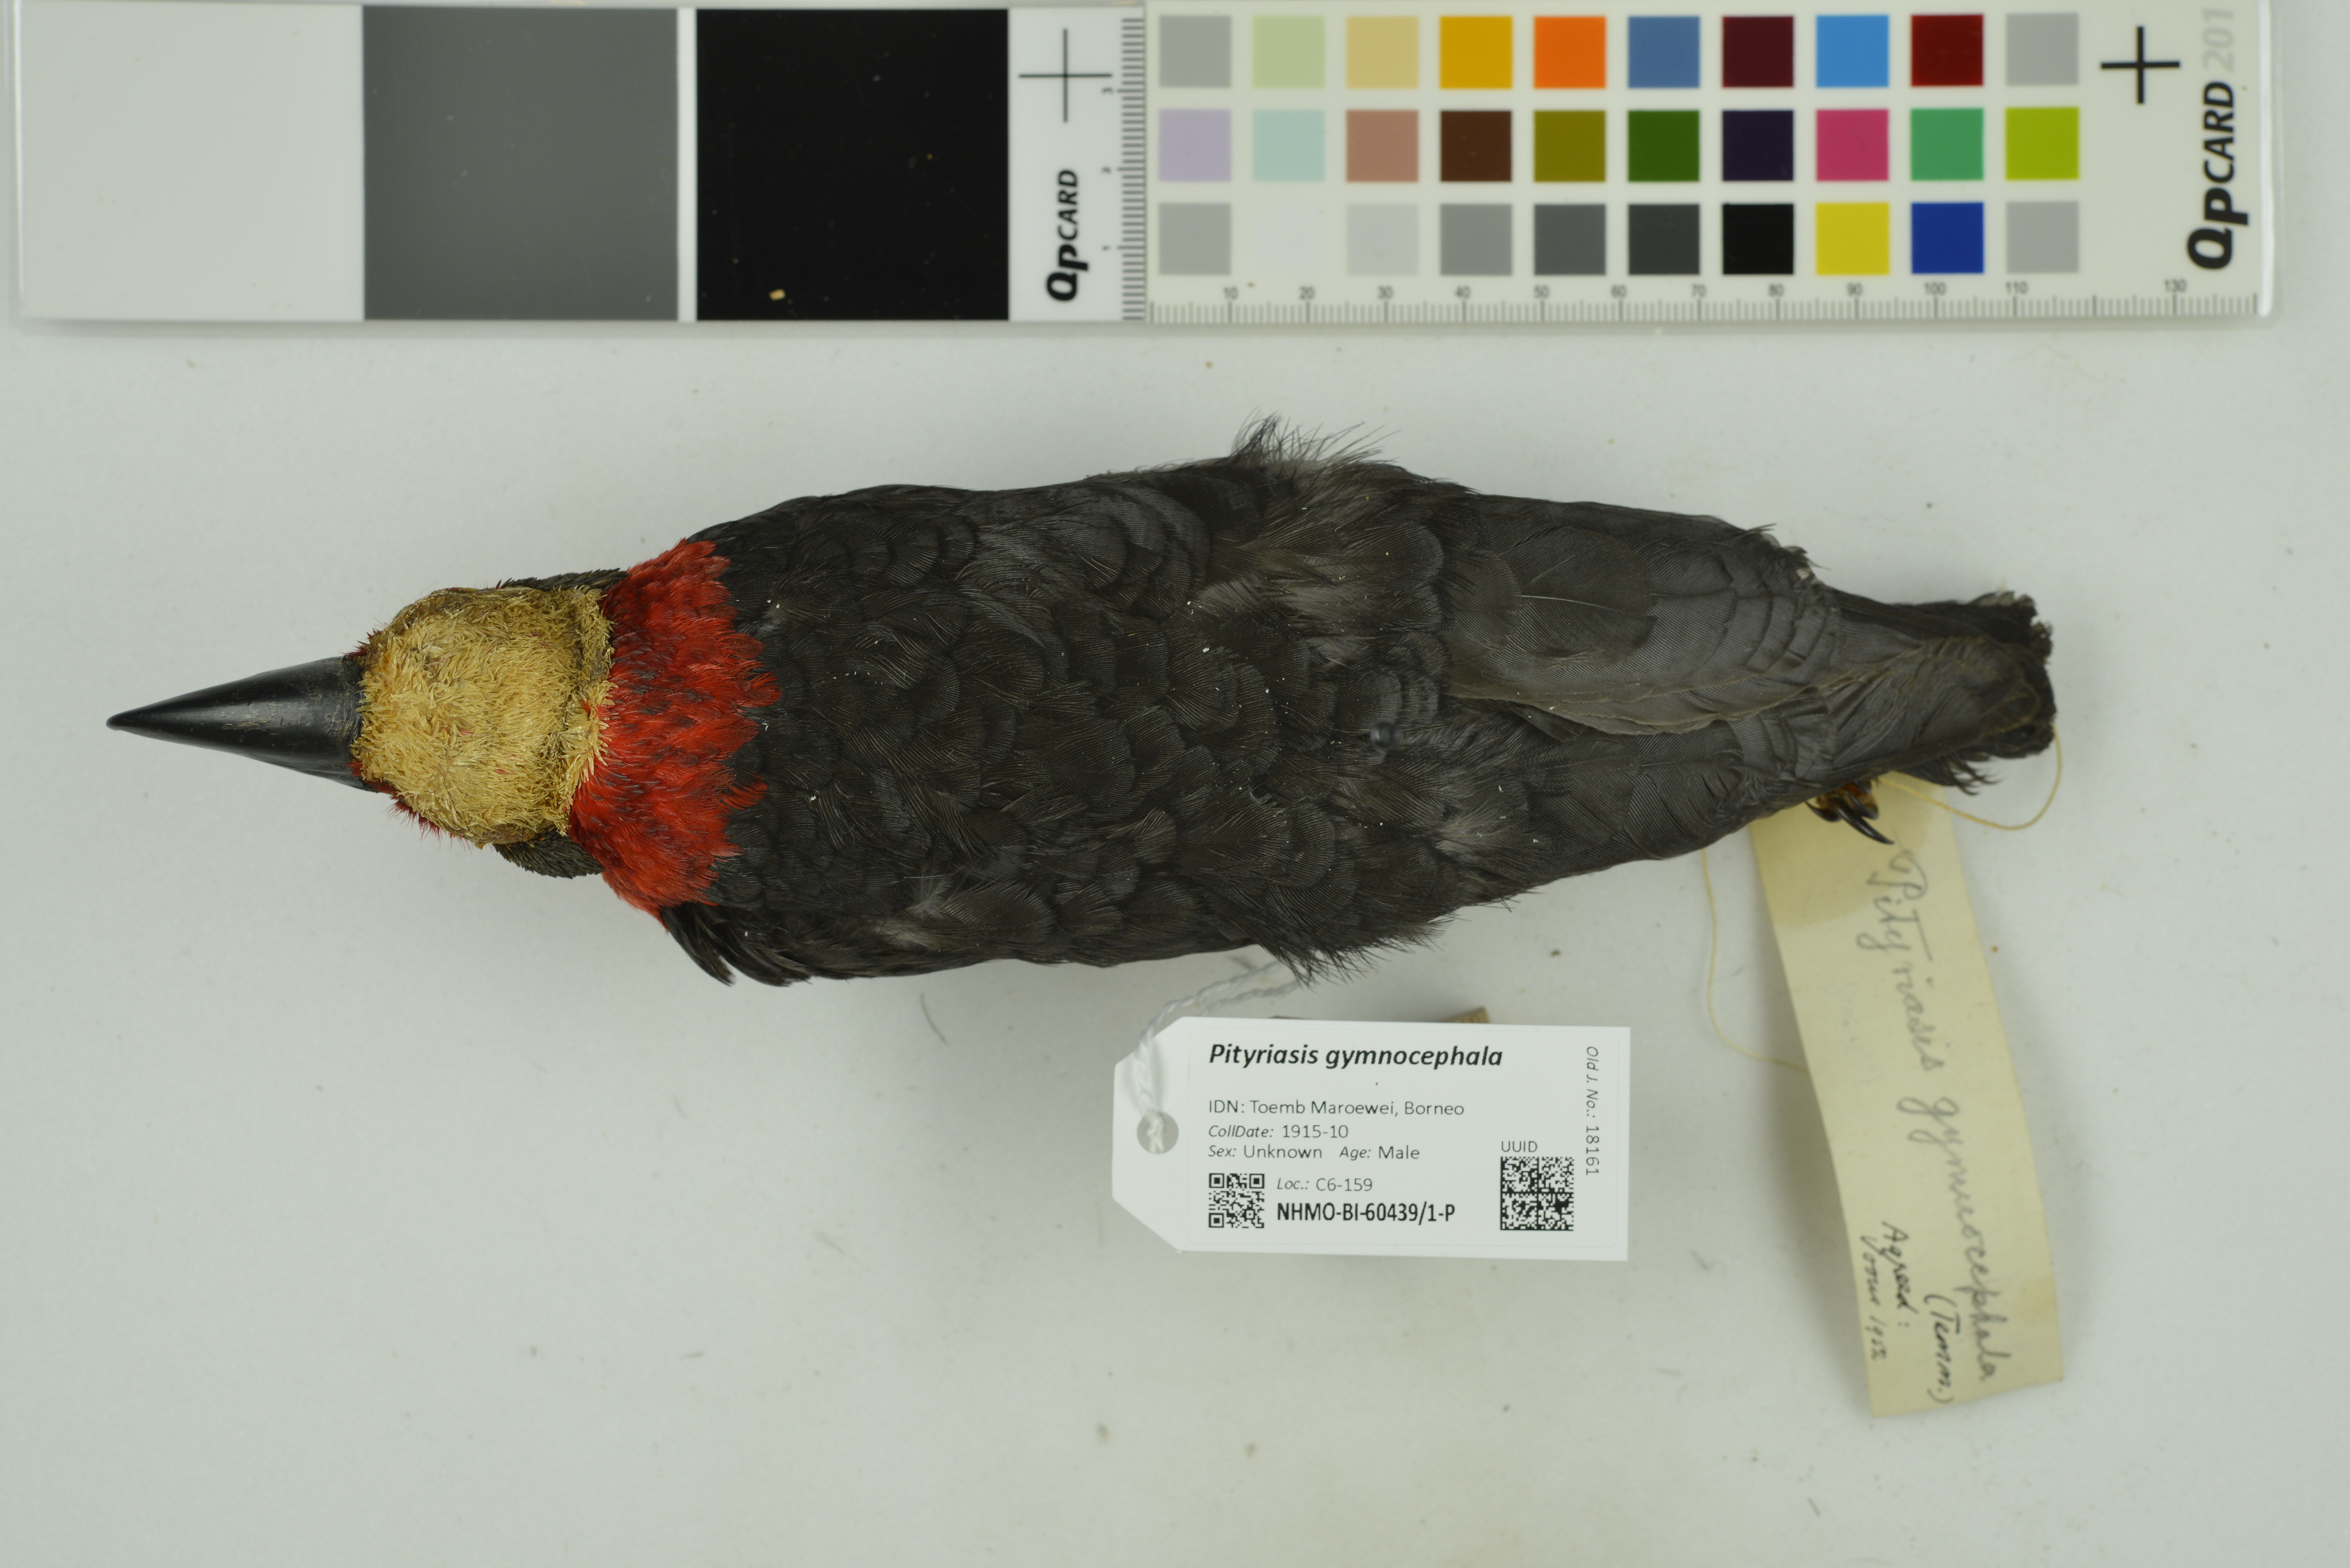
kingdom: Animalia
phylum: Chordata
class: Aves
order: Passeriformes
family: Pityriaseidae
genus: Pityriasis
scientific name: Pityriasis gymnocephala
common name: Bornean bristlehead
